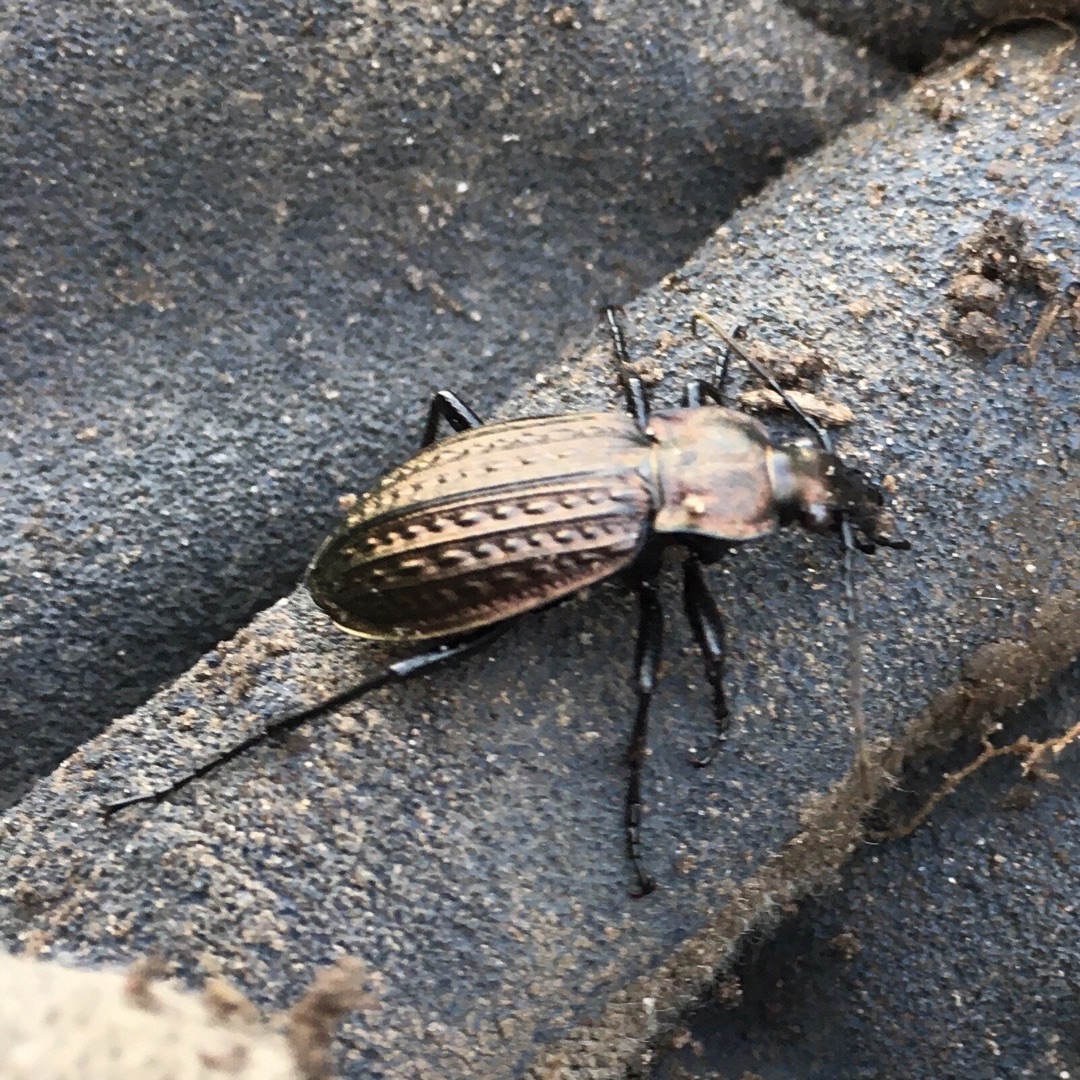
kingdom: Animalia
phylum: Arthropoda
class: Insecta
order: Coleoptera
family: Carabidae
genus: Carabus
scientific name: Carabus granulatus
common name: Kornet løber
